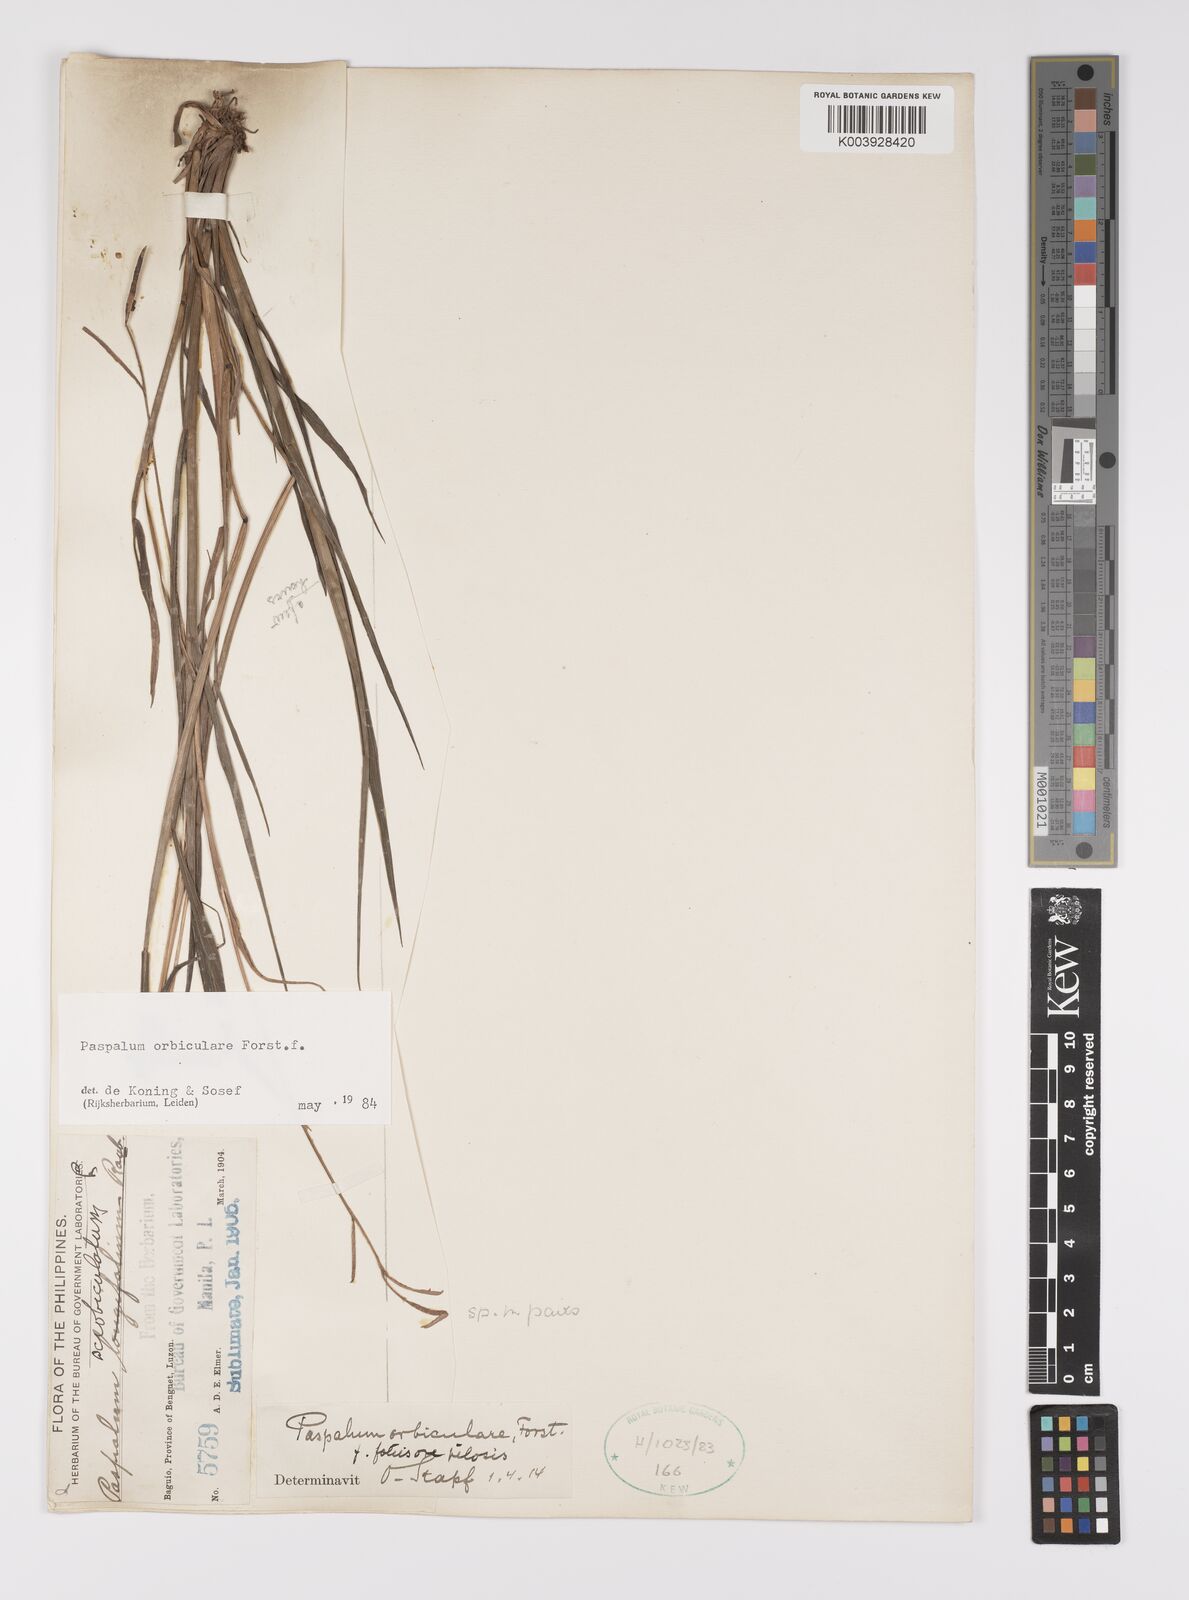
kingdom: Plantae
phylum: Tracheophyta
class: Liliopsida
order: Poales
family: Poaceae
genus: Paspalum
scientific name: Paspalum scrobiculatum
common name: Kodo millet
